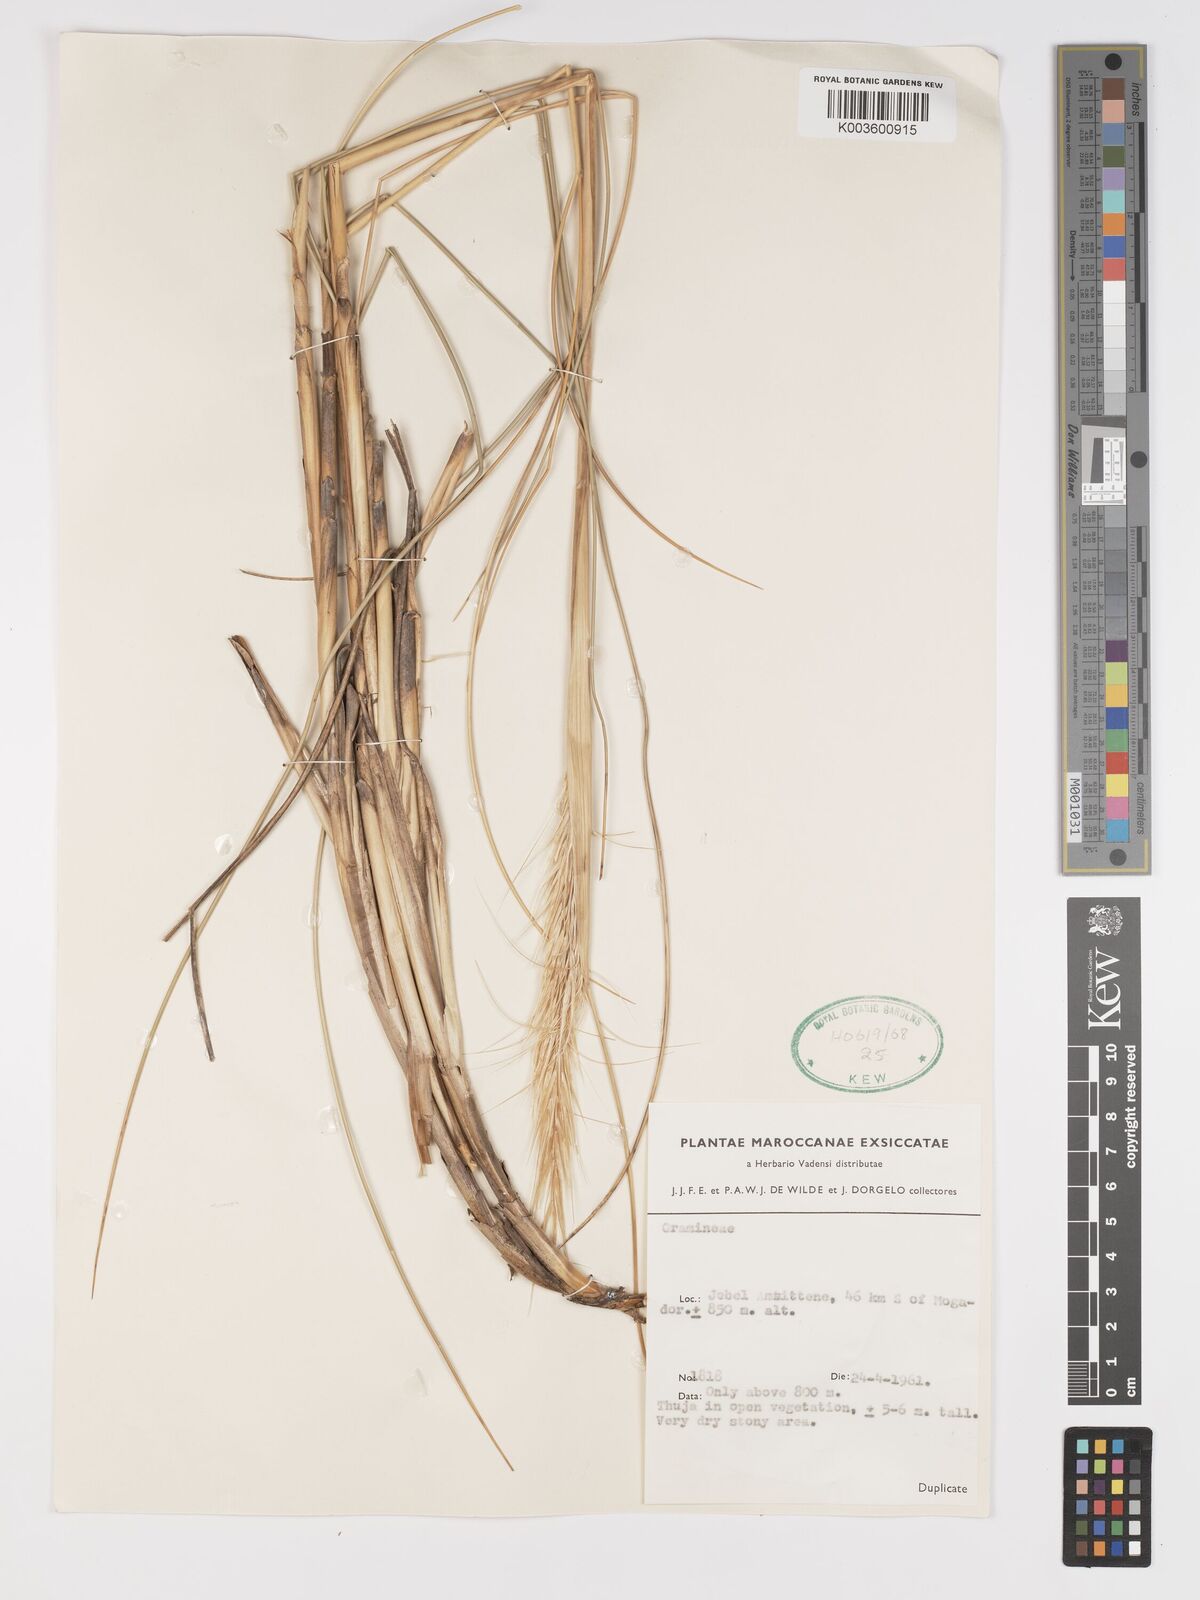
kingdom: Plantae
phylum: Tracheophyta
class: Liliopsida
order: Poales
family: Poaceae
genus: Macrochloa
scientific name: Macrochloa tenacissima
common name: Alfa grass
